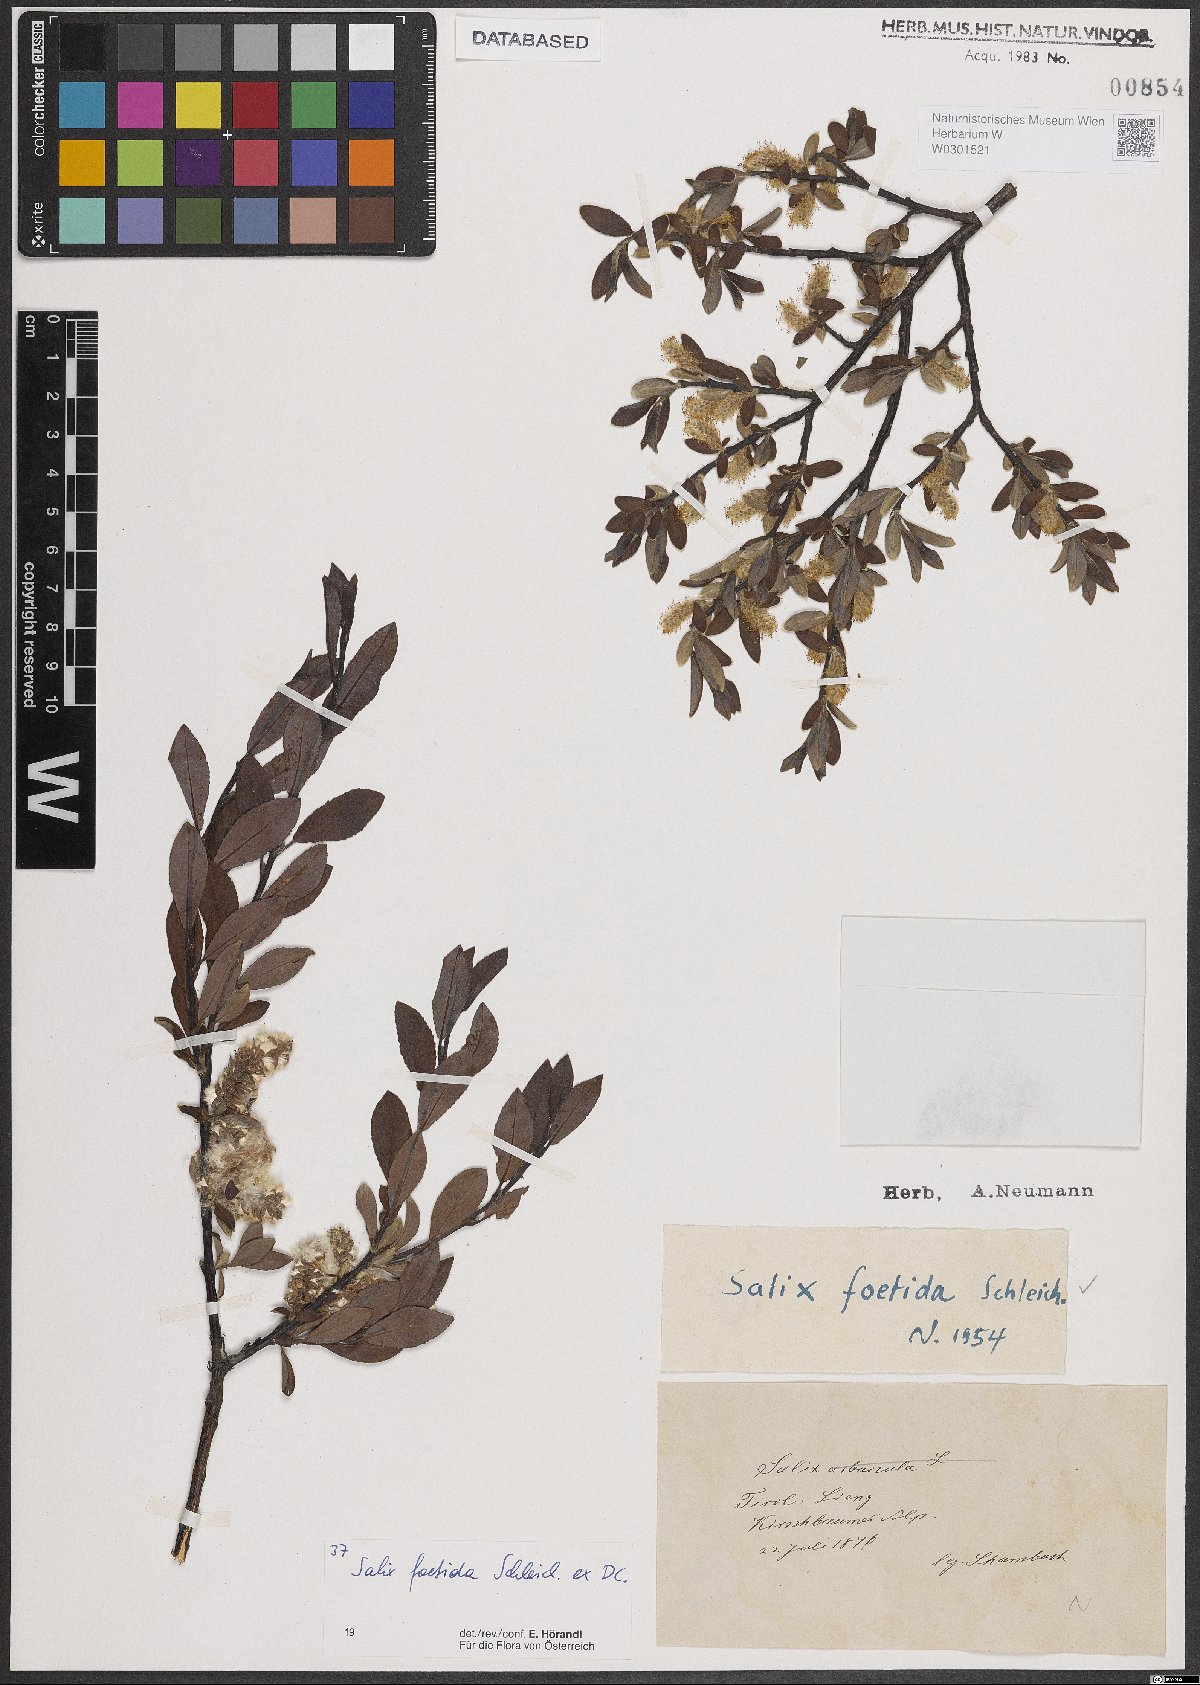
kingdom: Plantae
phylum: Tracheophyta
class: Magnoliopsida
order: Malpighiales
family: Salicaceae
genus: Salix
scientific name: Salix foetida
